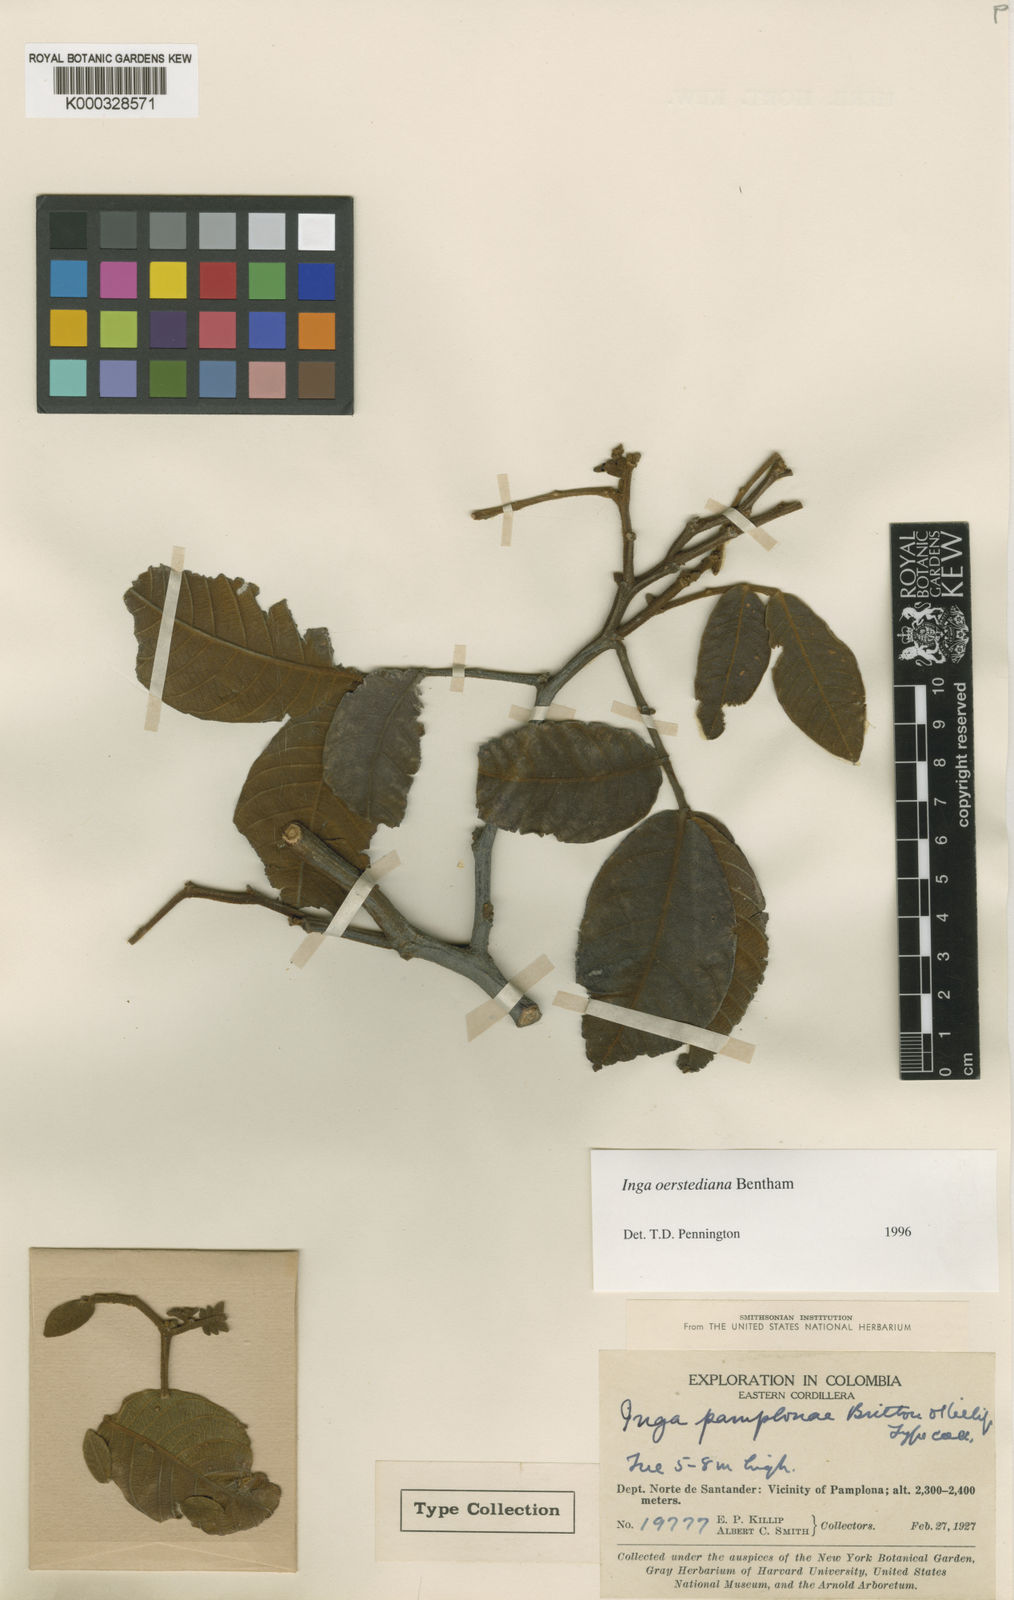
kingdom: Plantae
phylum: Tracheophyta
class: Magnoliopsida
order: Fabales
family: Fabaceae
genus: Inga
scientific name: Inga oerstediana
